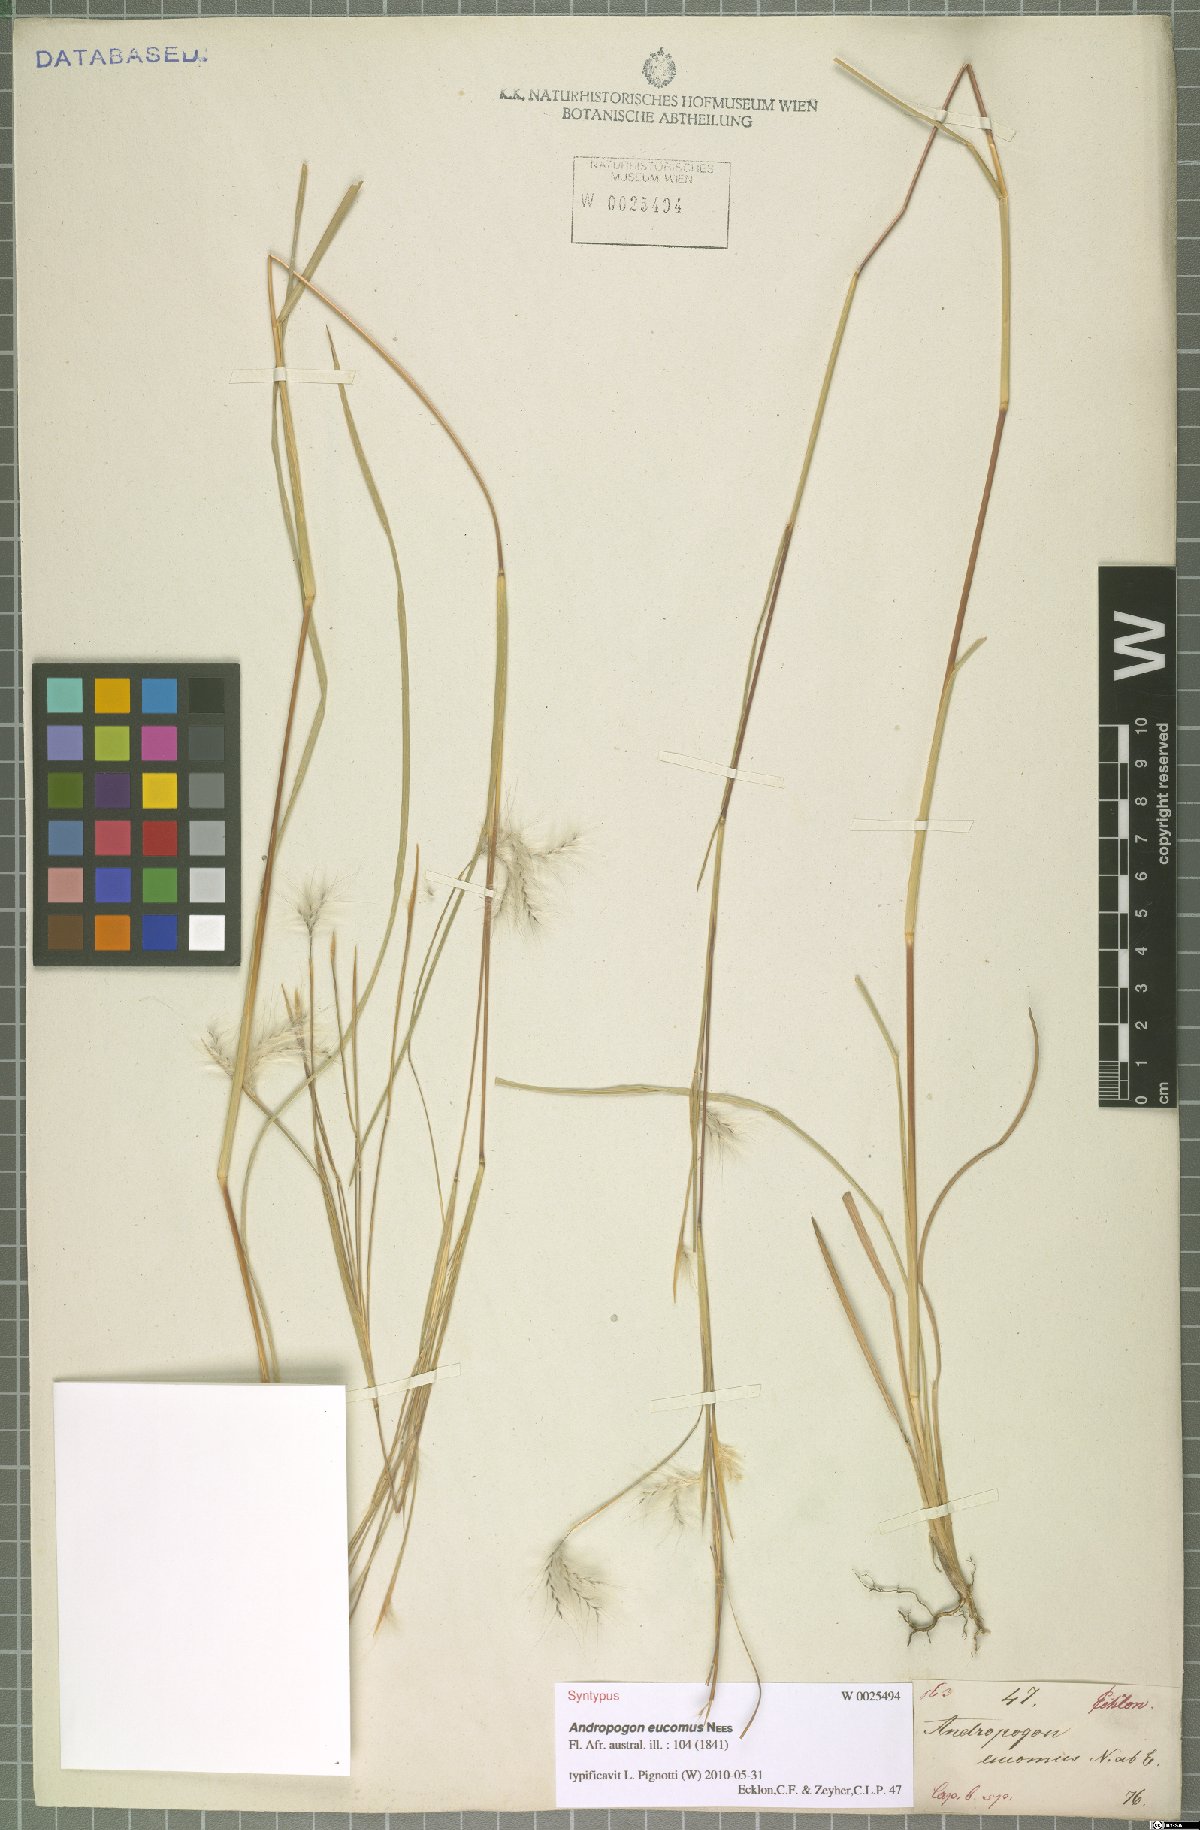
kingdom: Plantae
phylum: Tracheophyta
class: Liliopsida
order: Poales
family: Poaceae
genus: Andropogon
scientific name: Andropogon eucomus
